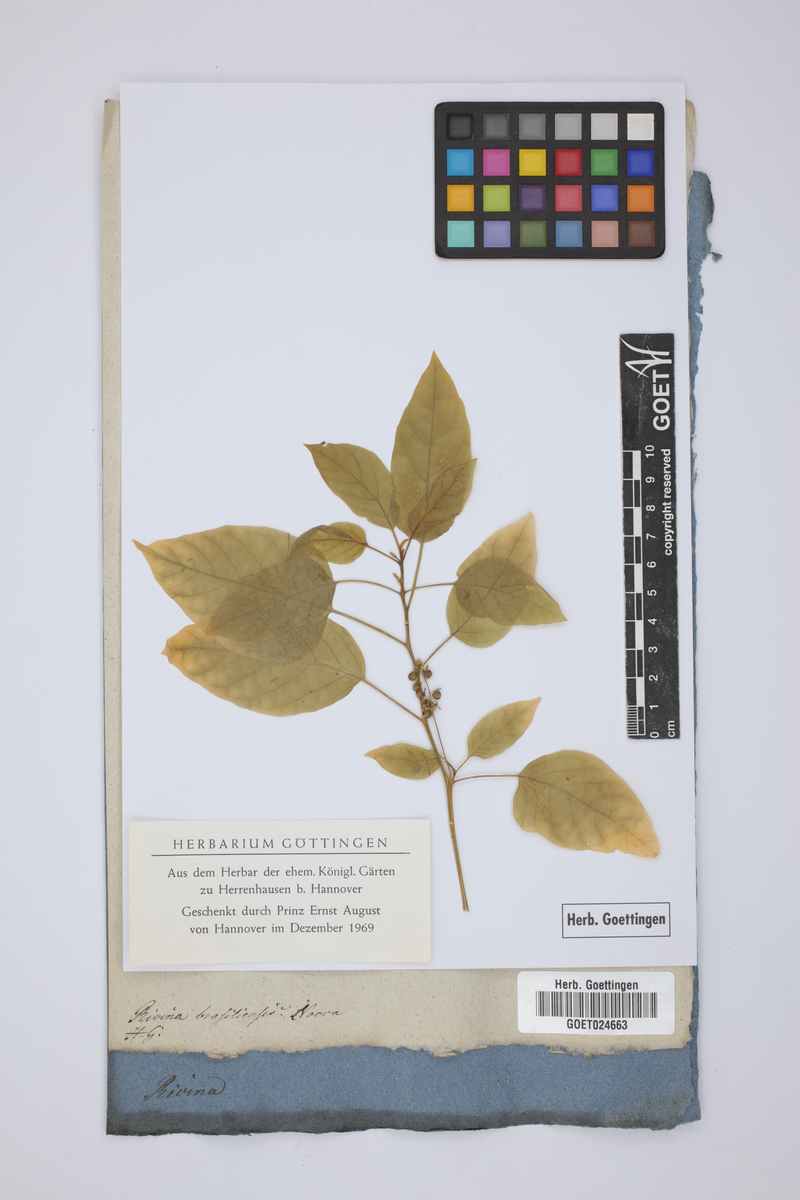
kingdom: Plantae
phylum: Tracheophyta
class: Magnoliopsida
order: Caryophyllales
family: Phytolaccaceae
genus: Rivina
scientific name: Rivina humilis
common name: Rougeplant
